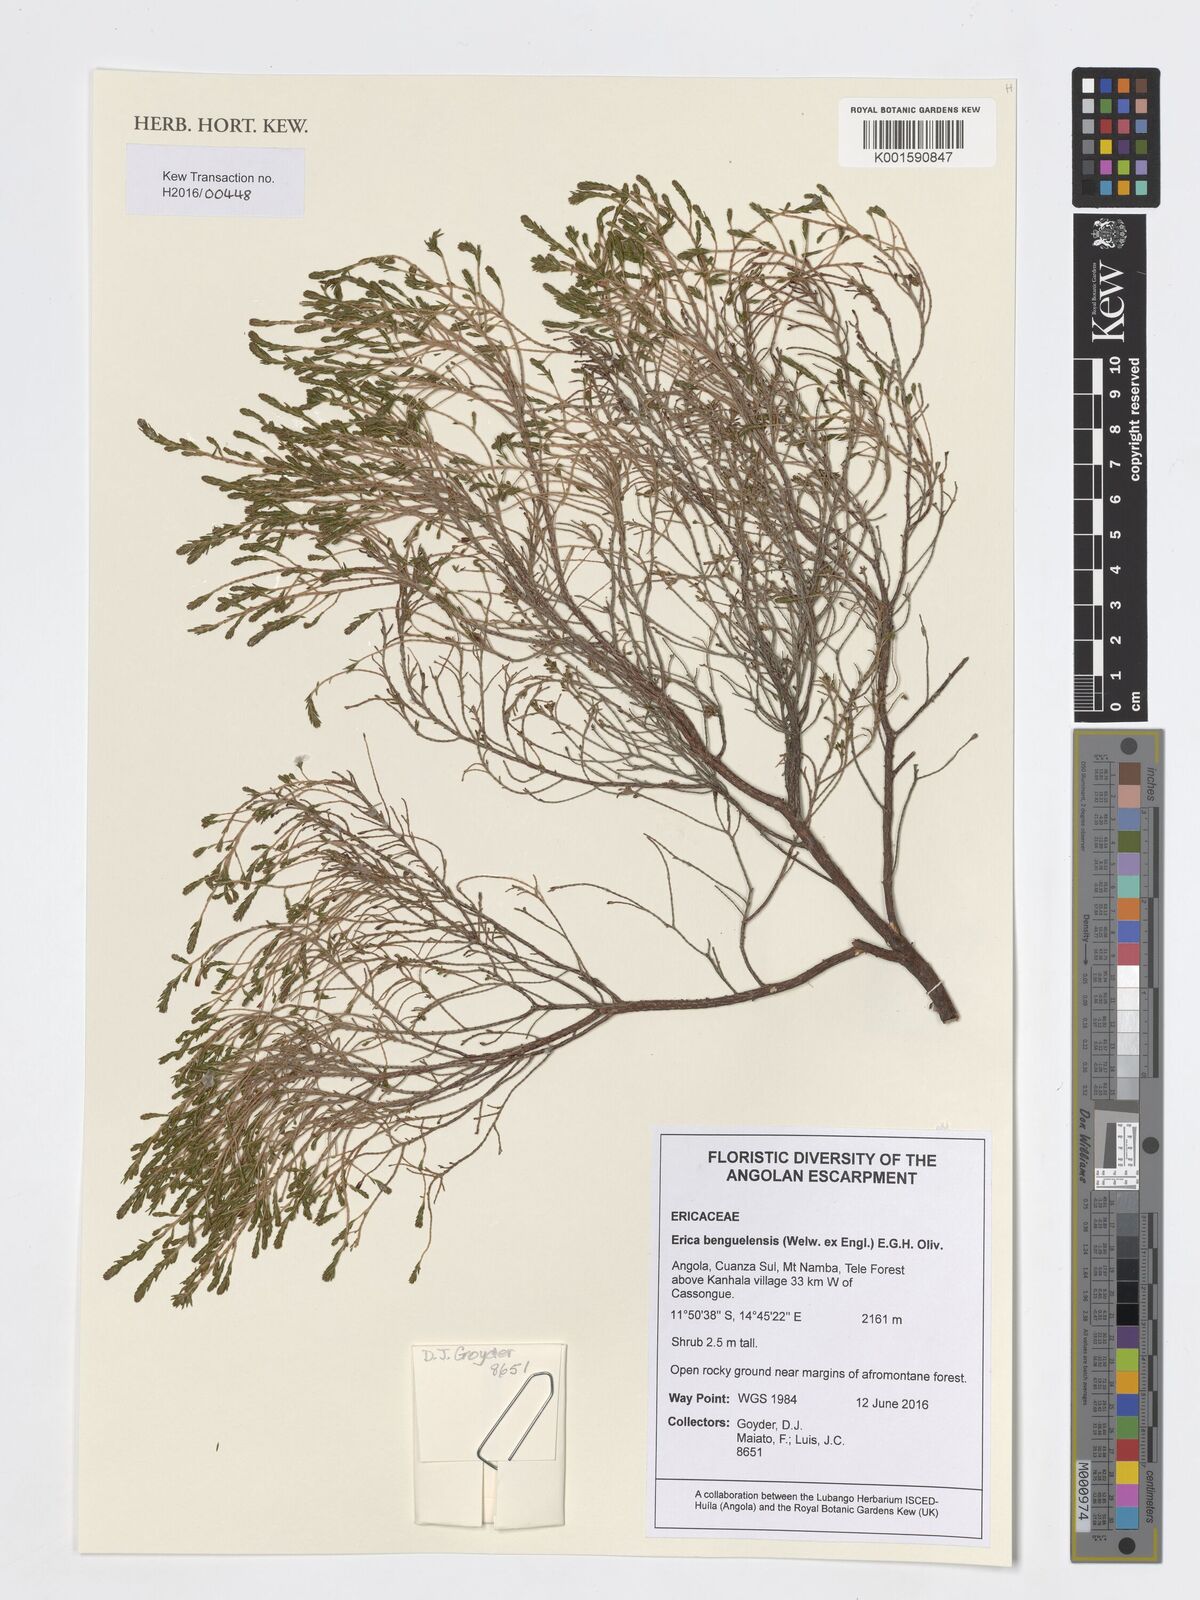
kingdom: Plantae
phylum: Tracheophyta
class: Magnoliopsida
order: Ericales
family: Ericaceae
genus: Erica
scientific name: Erica benguelensis
